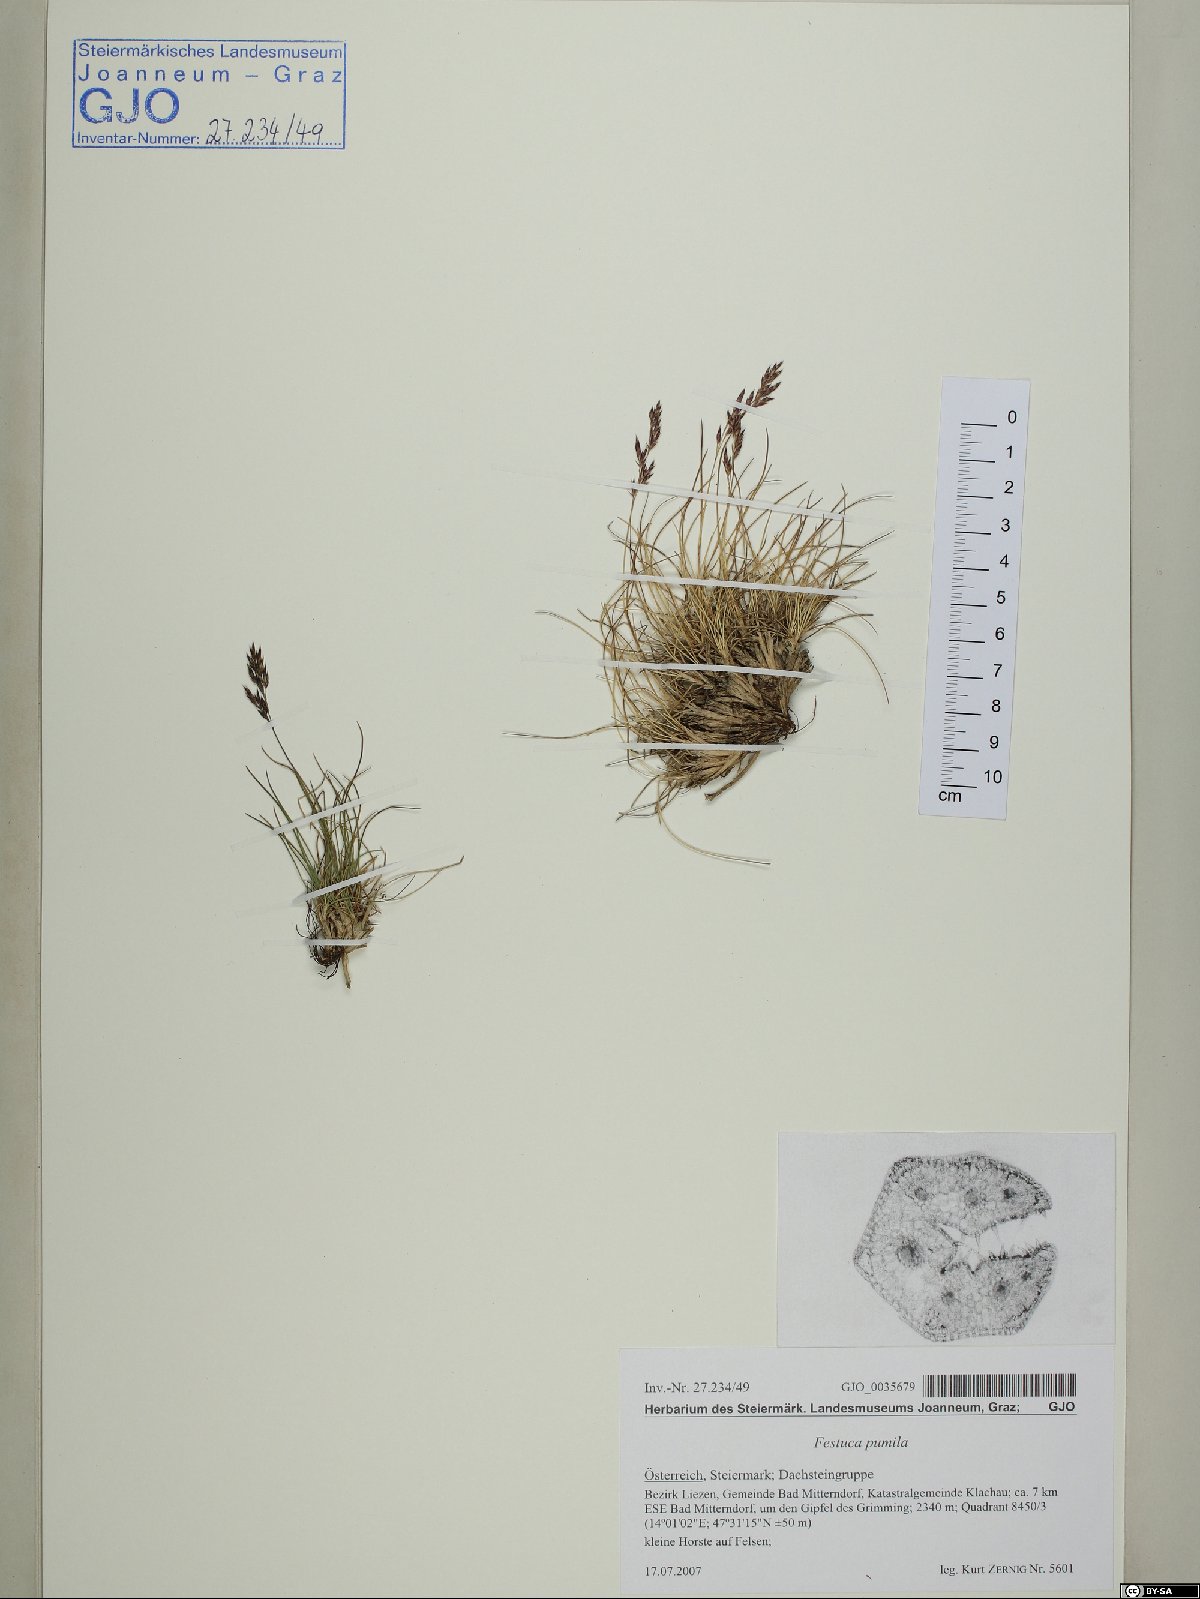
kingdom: Plantae
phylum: Tracheophyta
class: Liliopsida
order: Poales
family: Poaceae
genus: Festuca
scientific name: Festuca quadriflora
